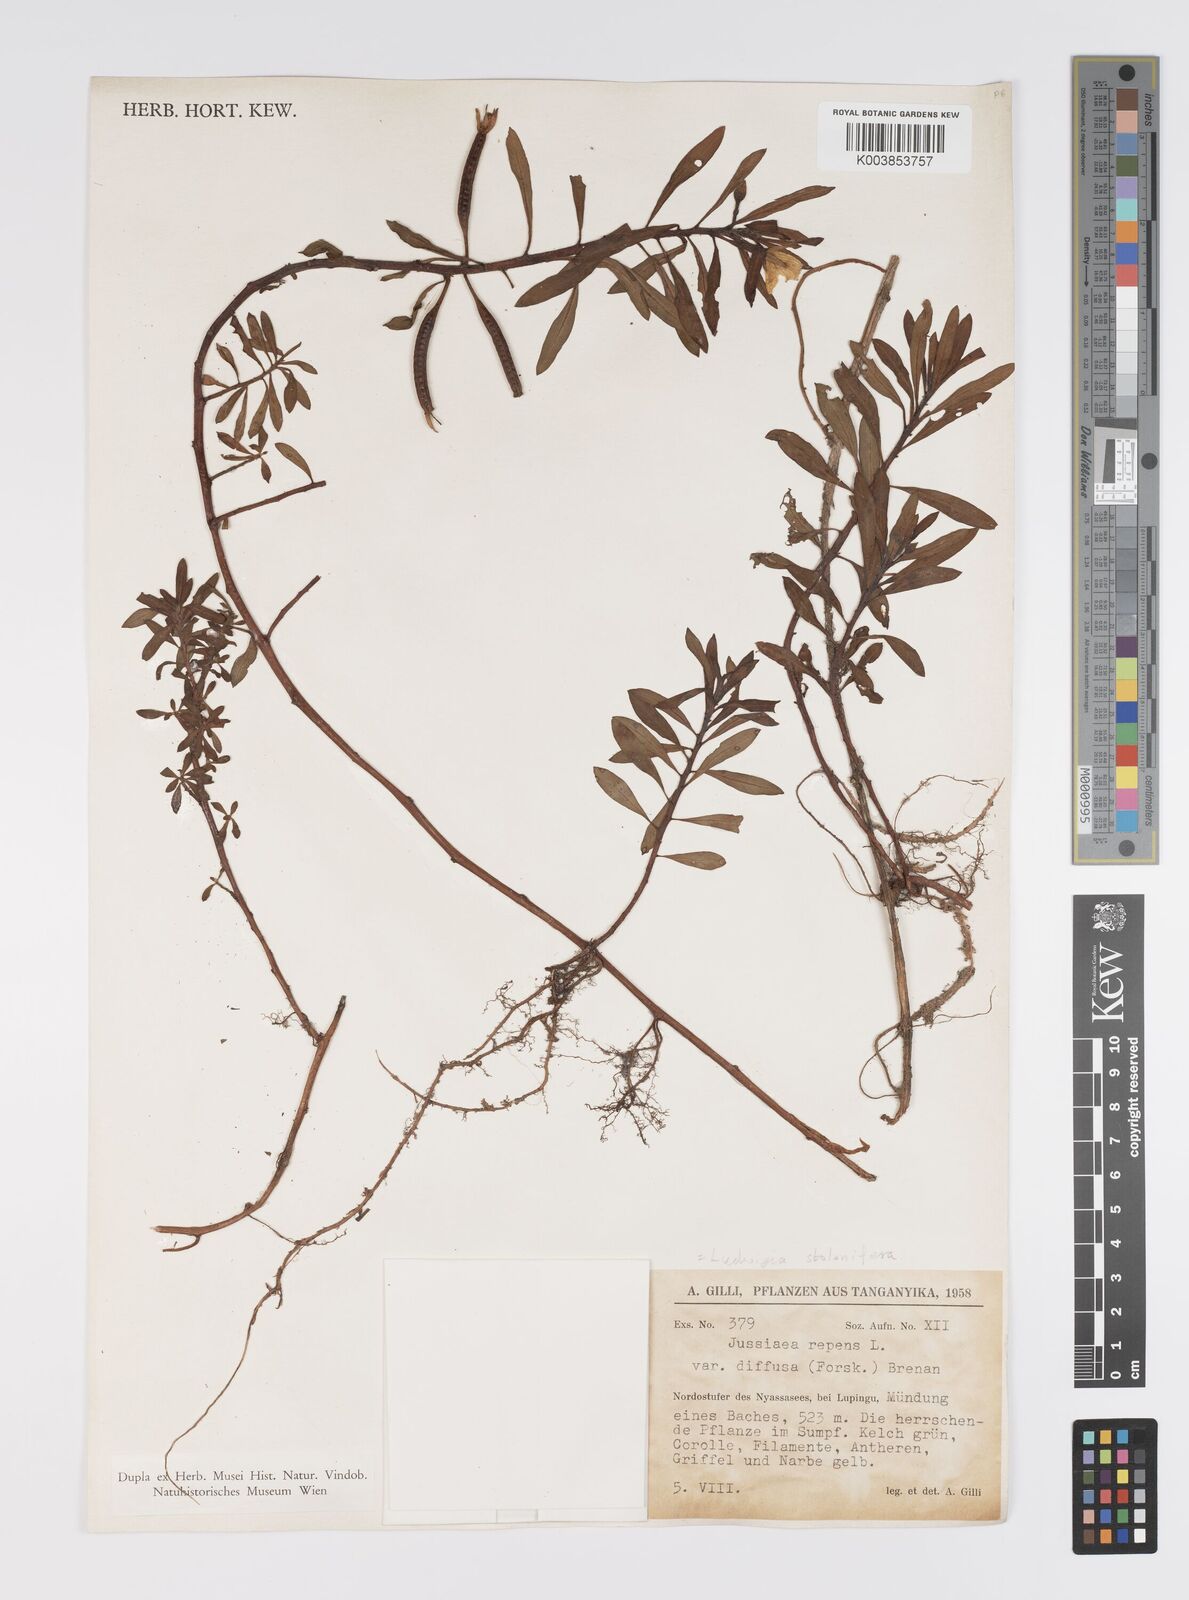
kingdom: Plantae
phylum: Tracheophyta
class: Magnoliopsida
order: Myrtales
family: Onagraceae
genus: Ludwigia
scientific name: Ludwigia adscendens
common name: Creeping water primrose
